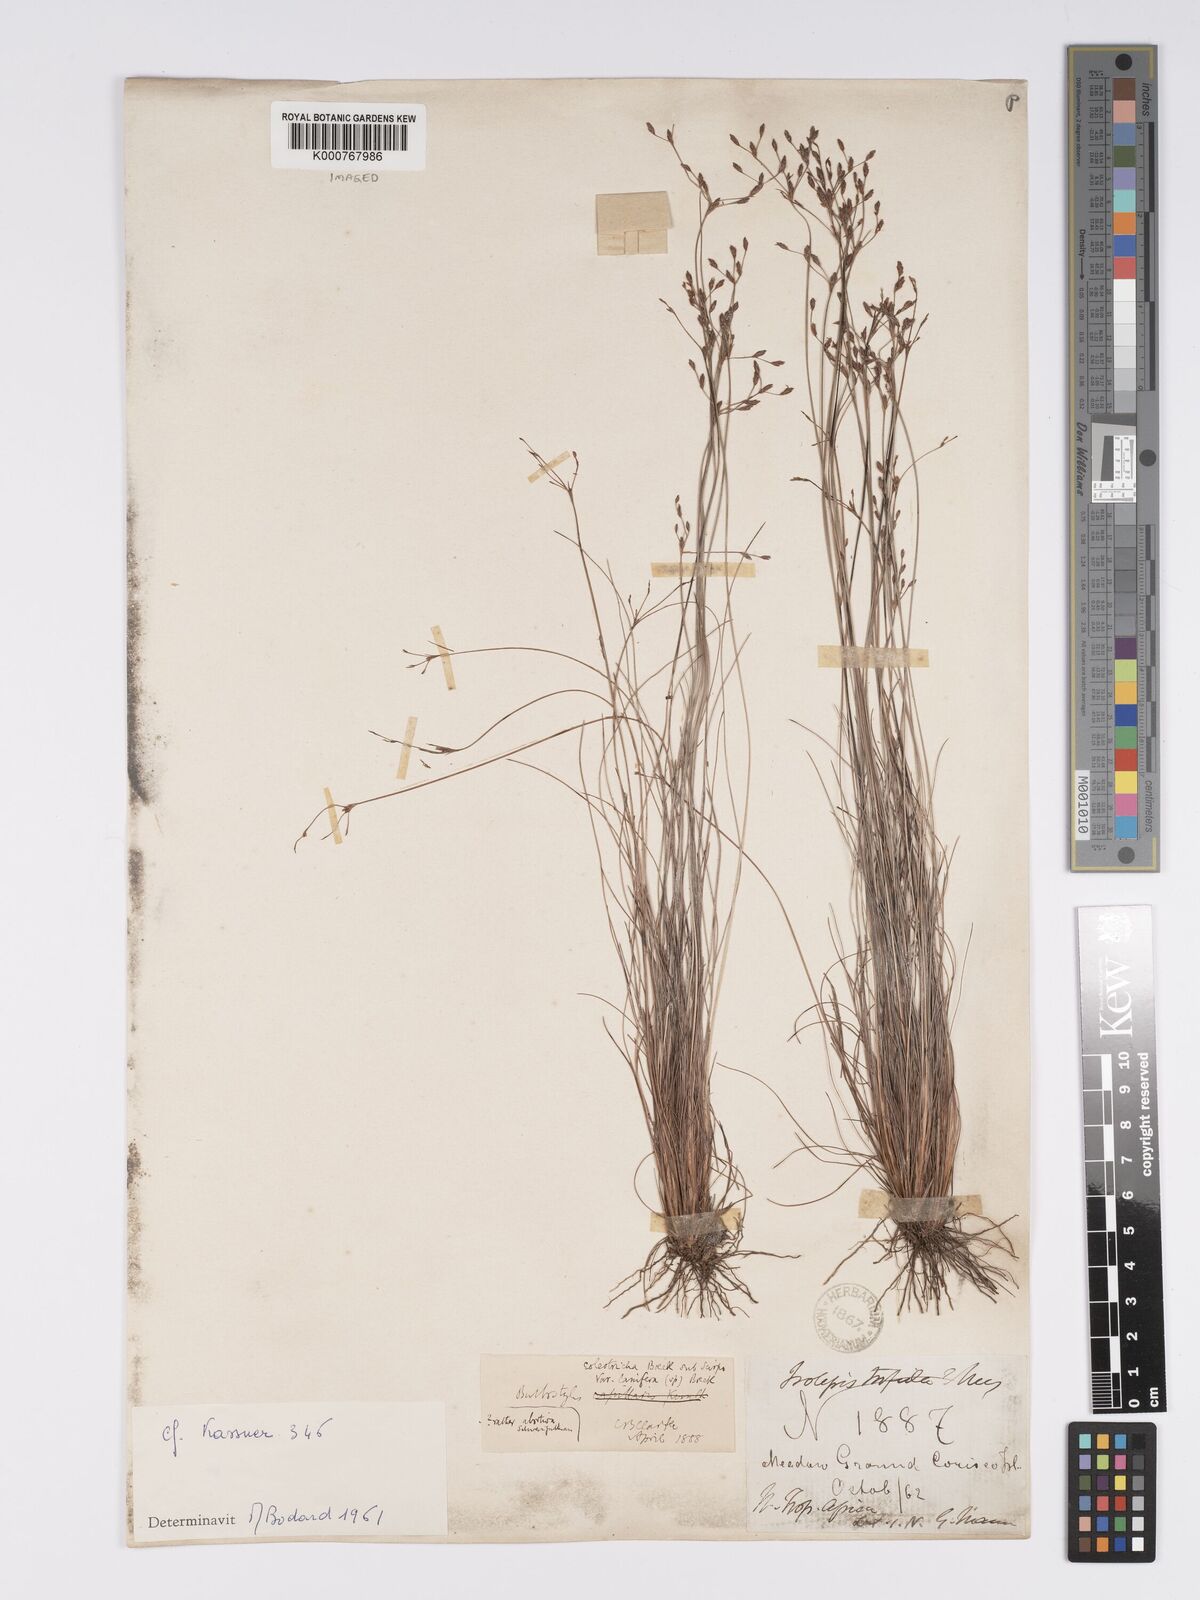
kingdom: Plantae
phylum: Tracheophyta
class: Liliopsida
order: Poales
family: Cyperaceae
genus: Bulbostylis
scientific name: Bulbostylis coleotricha
